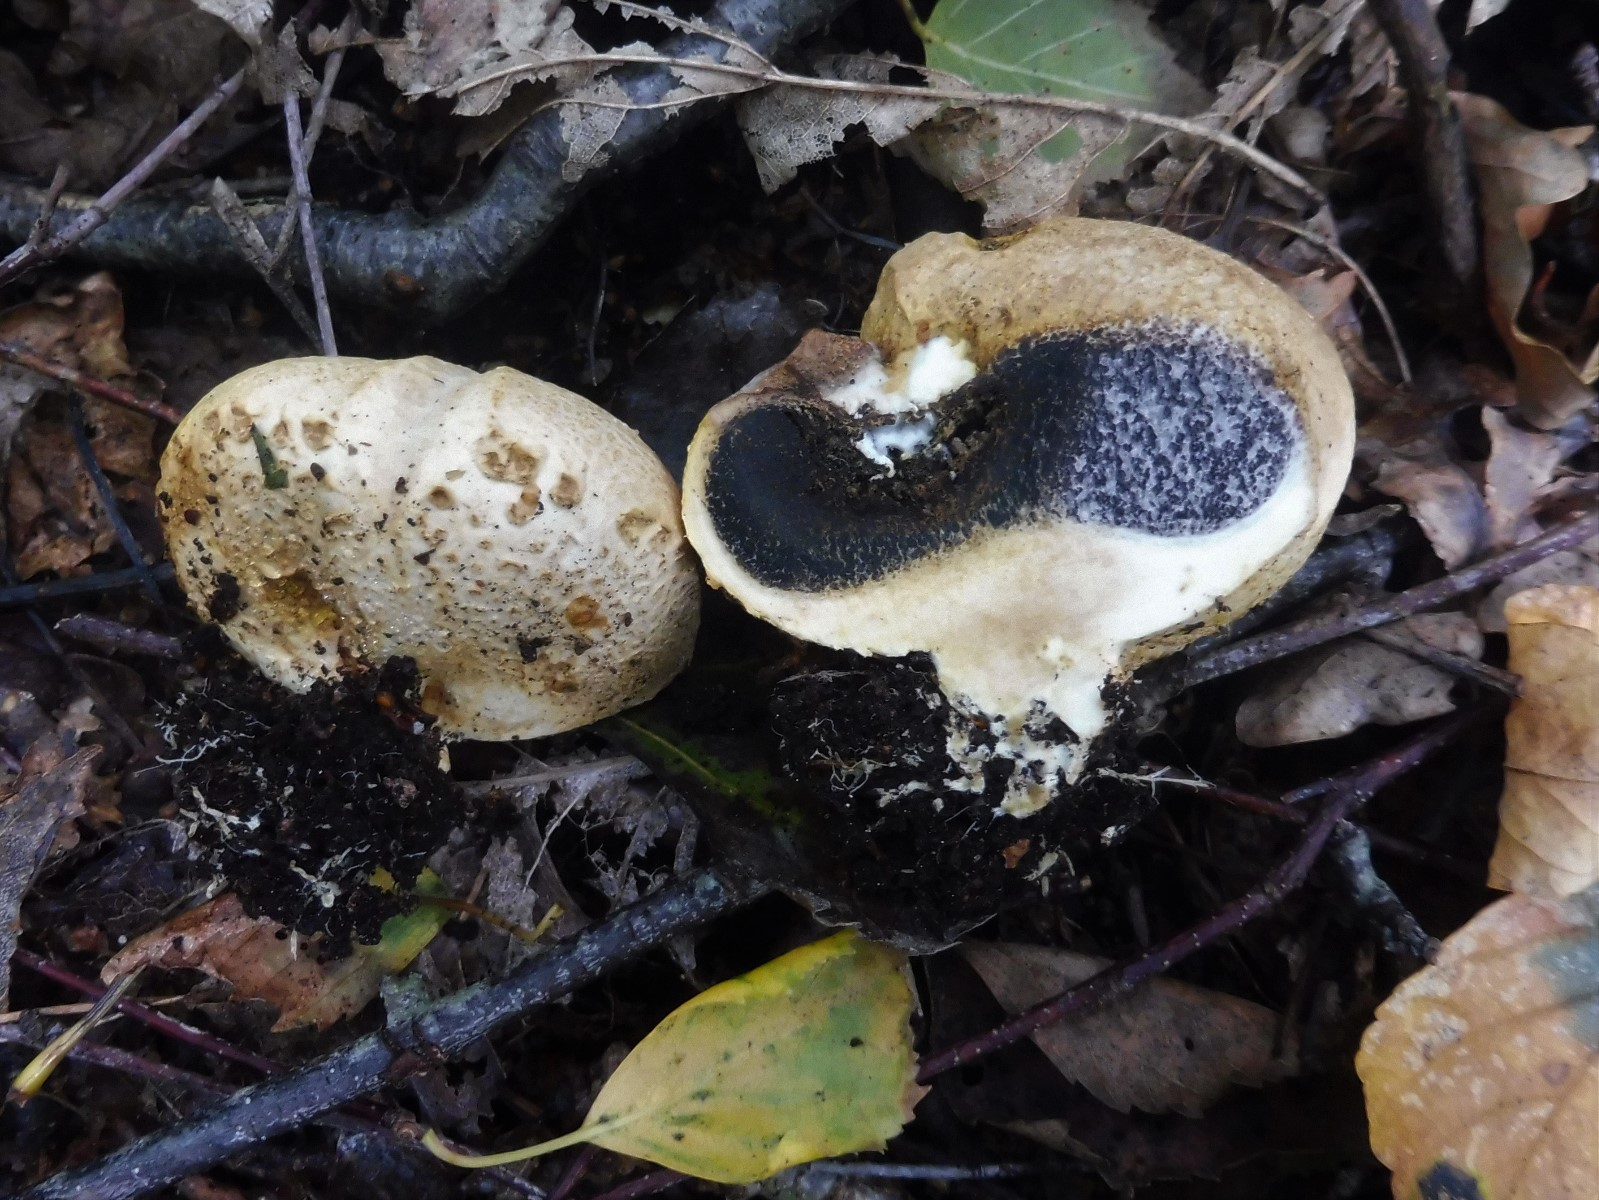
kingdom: Fungi
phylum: Basidiomycota
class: Agaricomycetes
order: Boletales
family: Sclerodermataceae
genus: Scleroderma
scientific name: Scleroderma citrinum
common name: almindelig bruskbold
